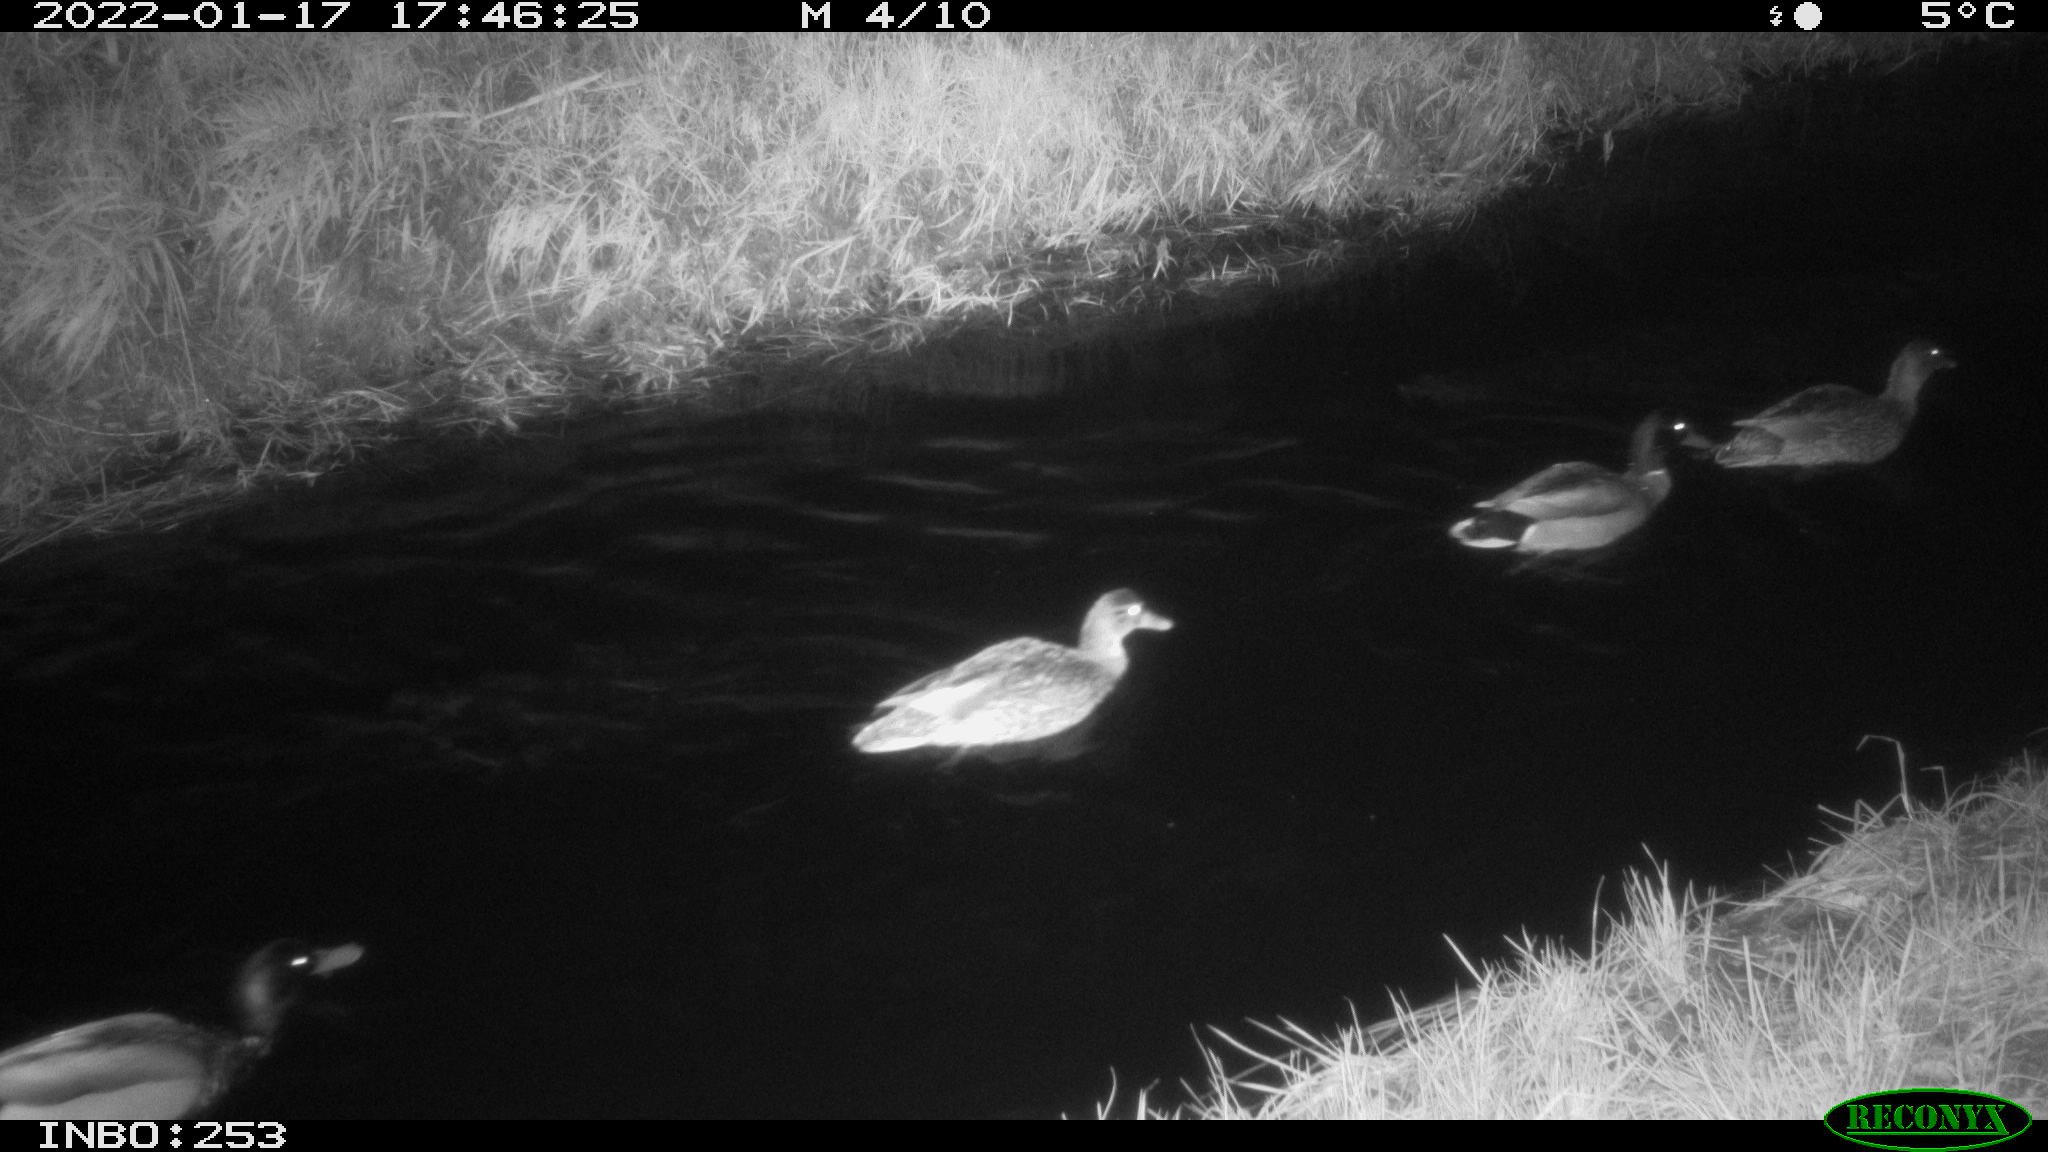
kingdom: Animalia
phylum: Chordata
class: Aves
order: Anseriformes
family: Anatidae
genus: Anas
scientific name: Anas
